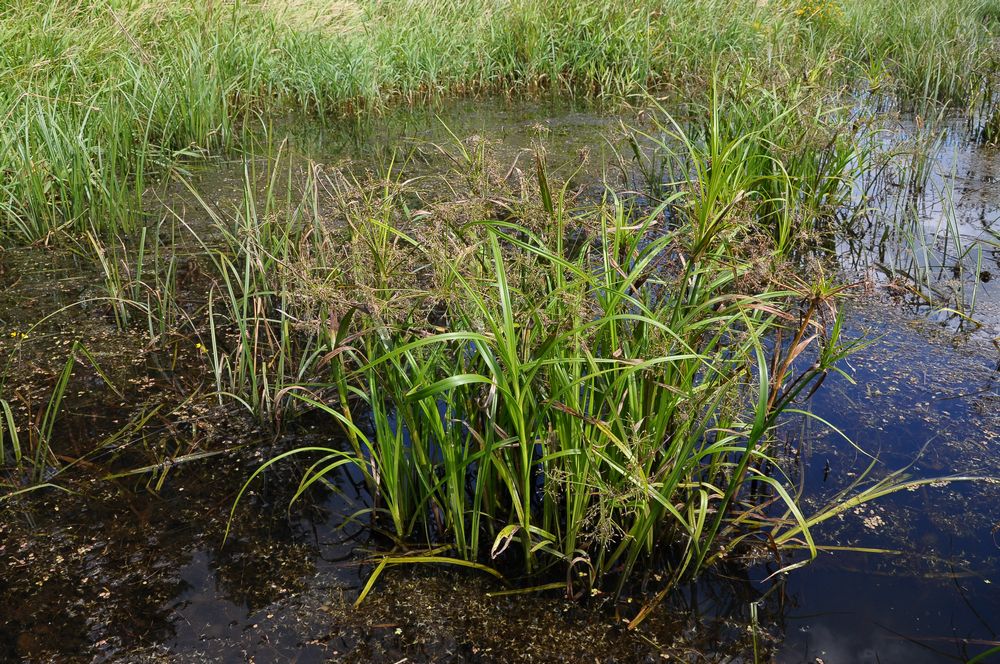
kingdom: Plantae
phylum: Tracheophyta
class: Liliopsida
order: Poales
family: Cyperaceae
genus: Scirpus
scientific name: Scirpus radicans
